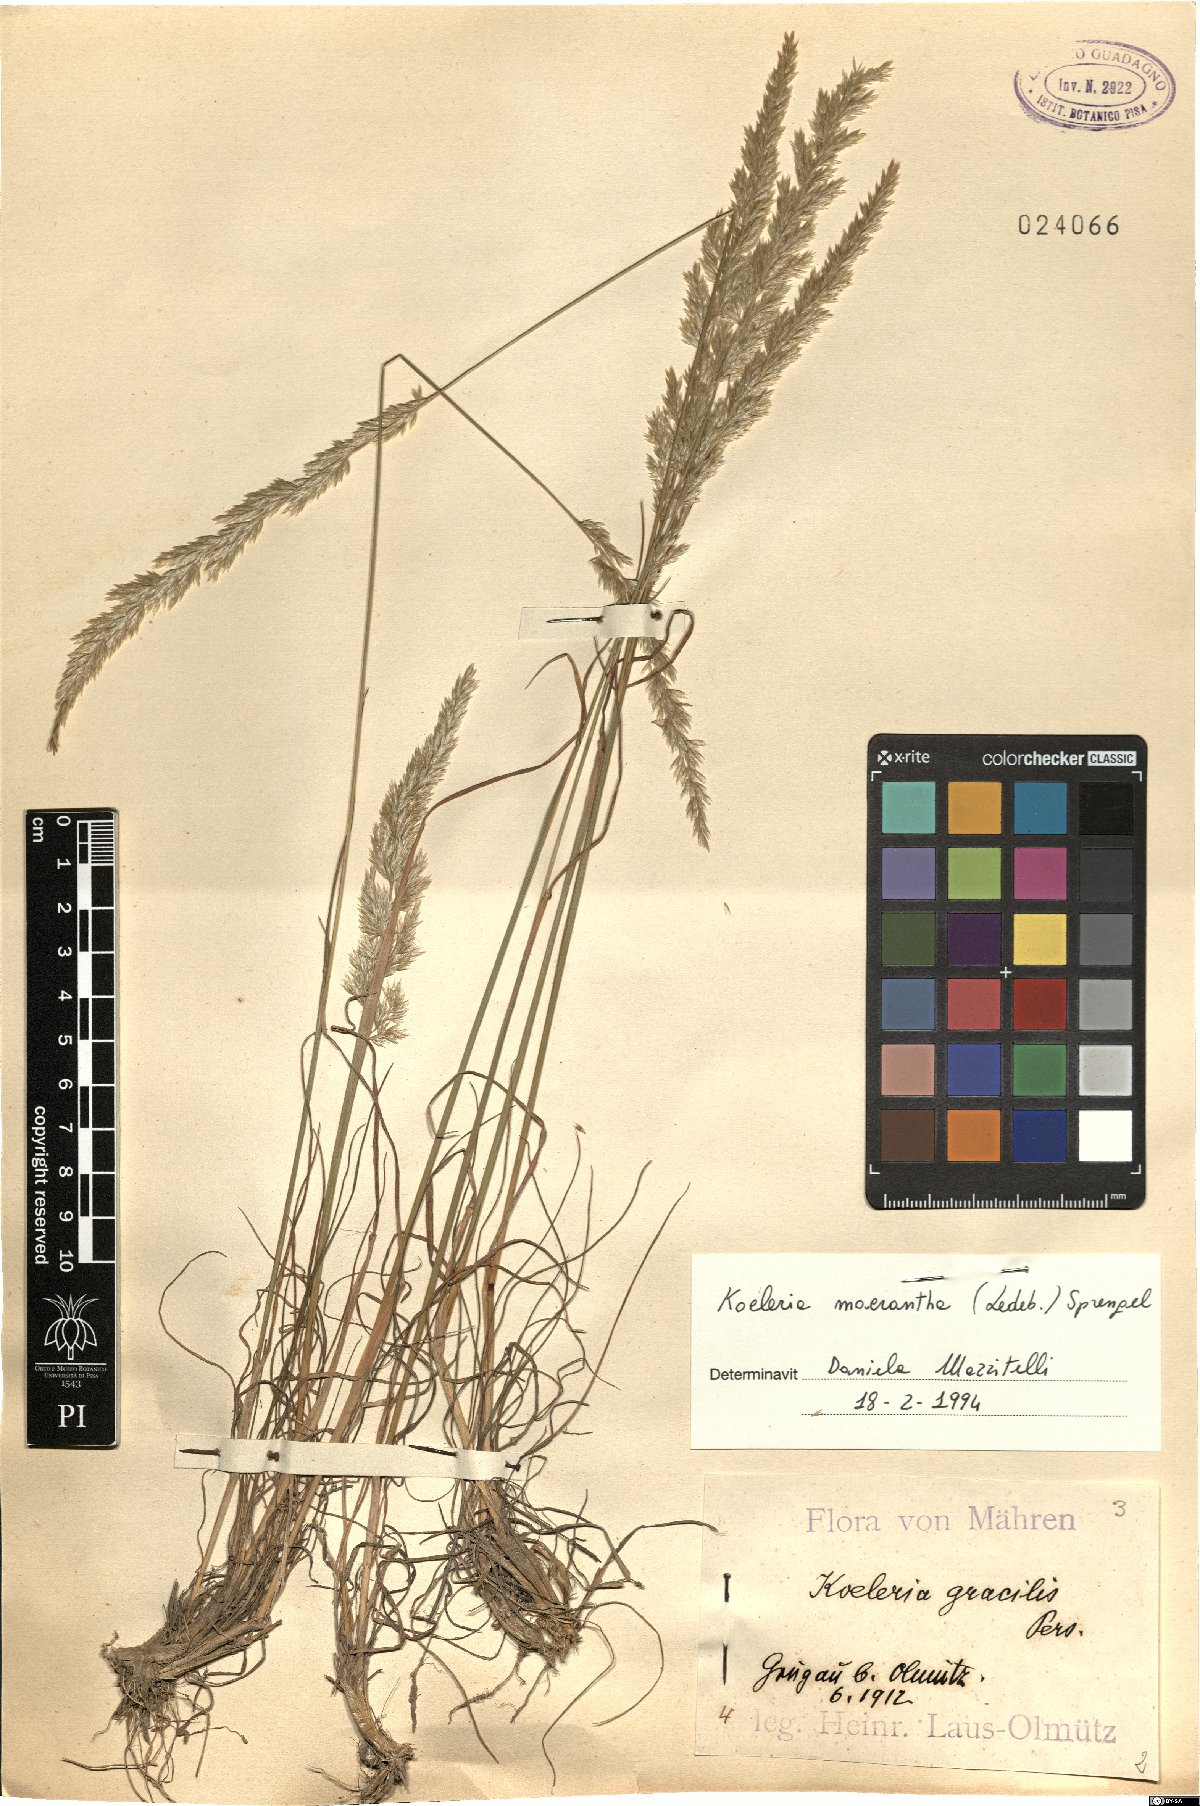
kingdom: Plantae
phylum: Tracheophyta
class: Liliopsida
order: Poales
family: Poaceae
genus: Koeleria
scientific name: Koeleria macrantha
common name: Crested hair-grass
